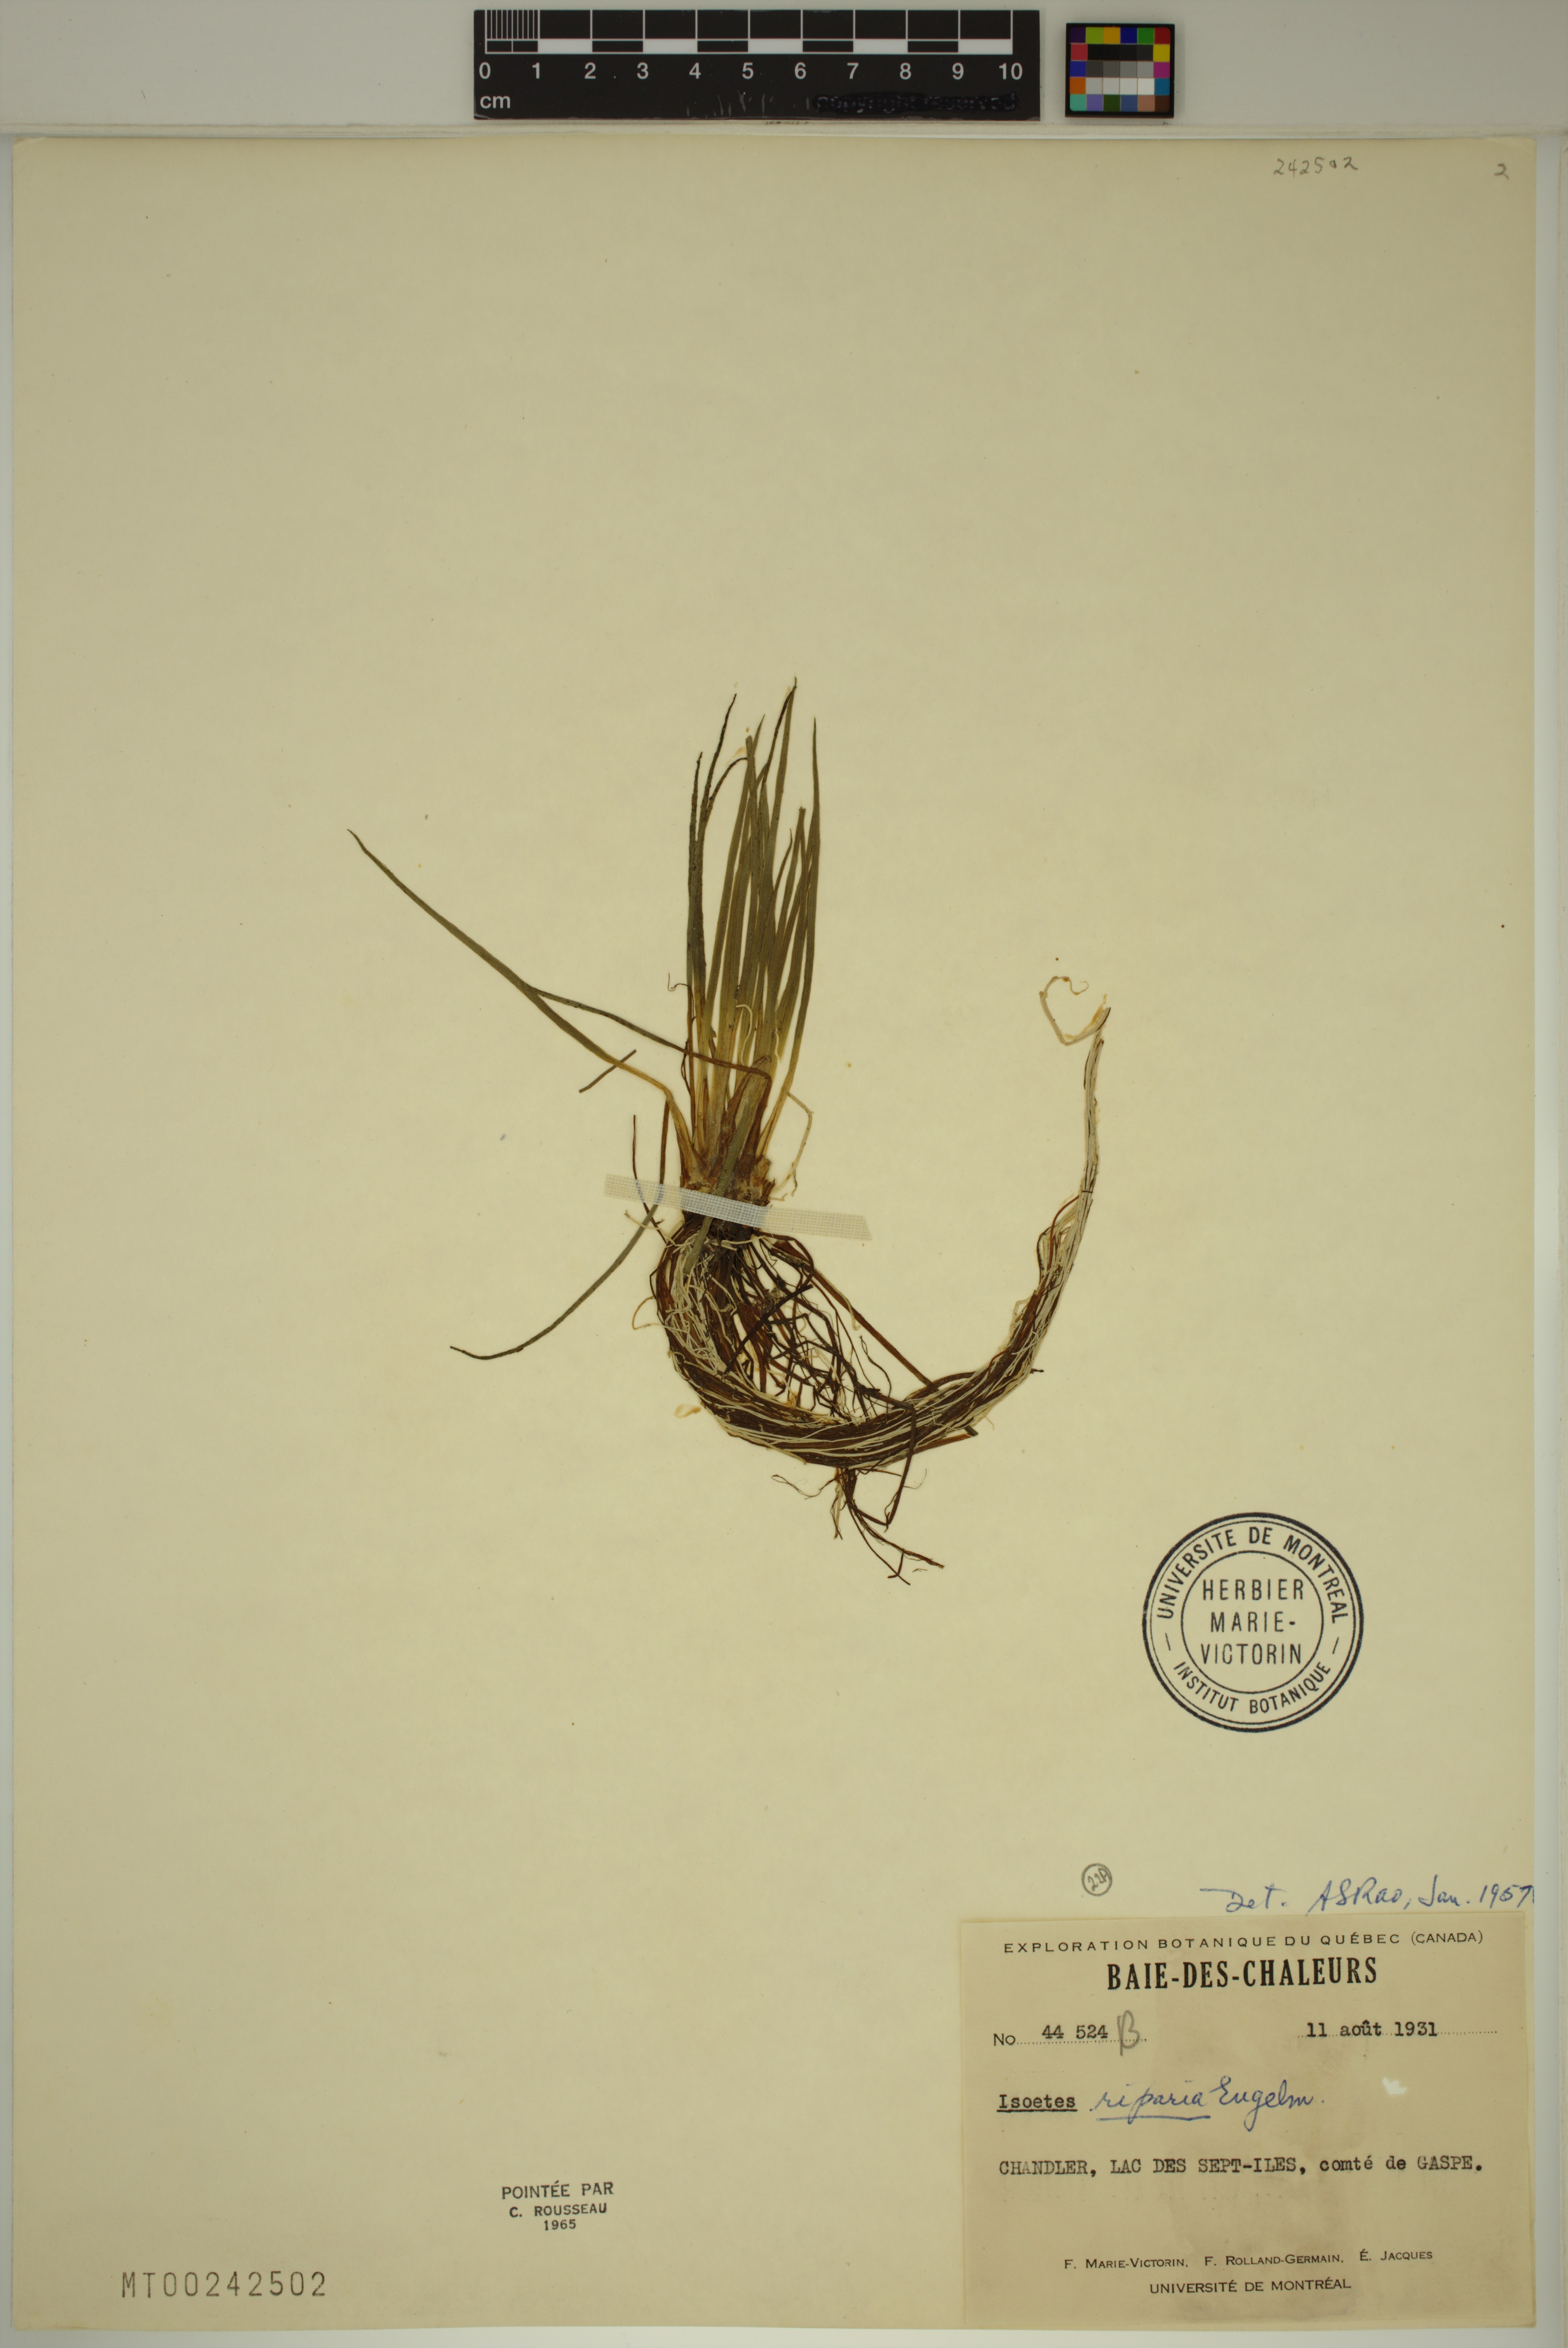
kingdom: Plantae
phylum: Tracheophyta
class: Lycopodiopsida
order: Isoetales
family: Isoetaceae
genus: Isoetes
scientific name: Isoetes lacustris
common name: Common quillwort
